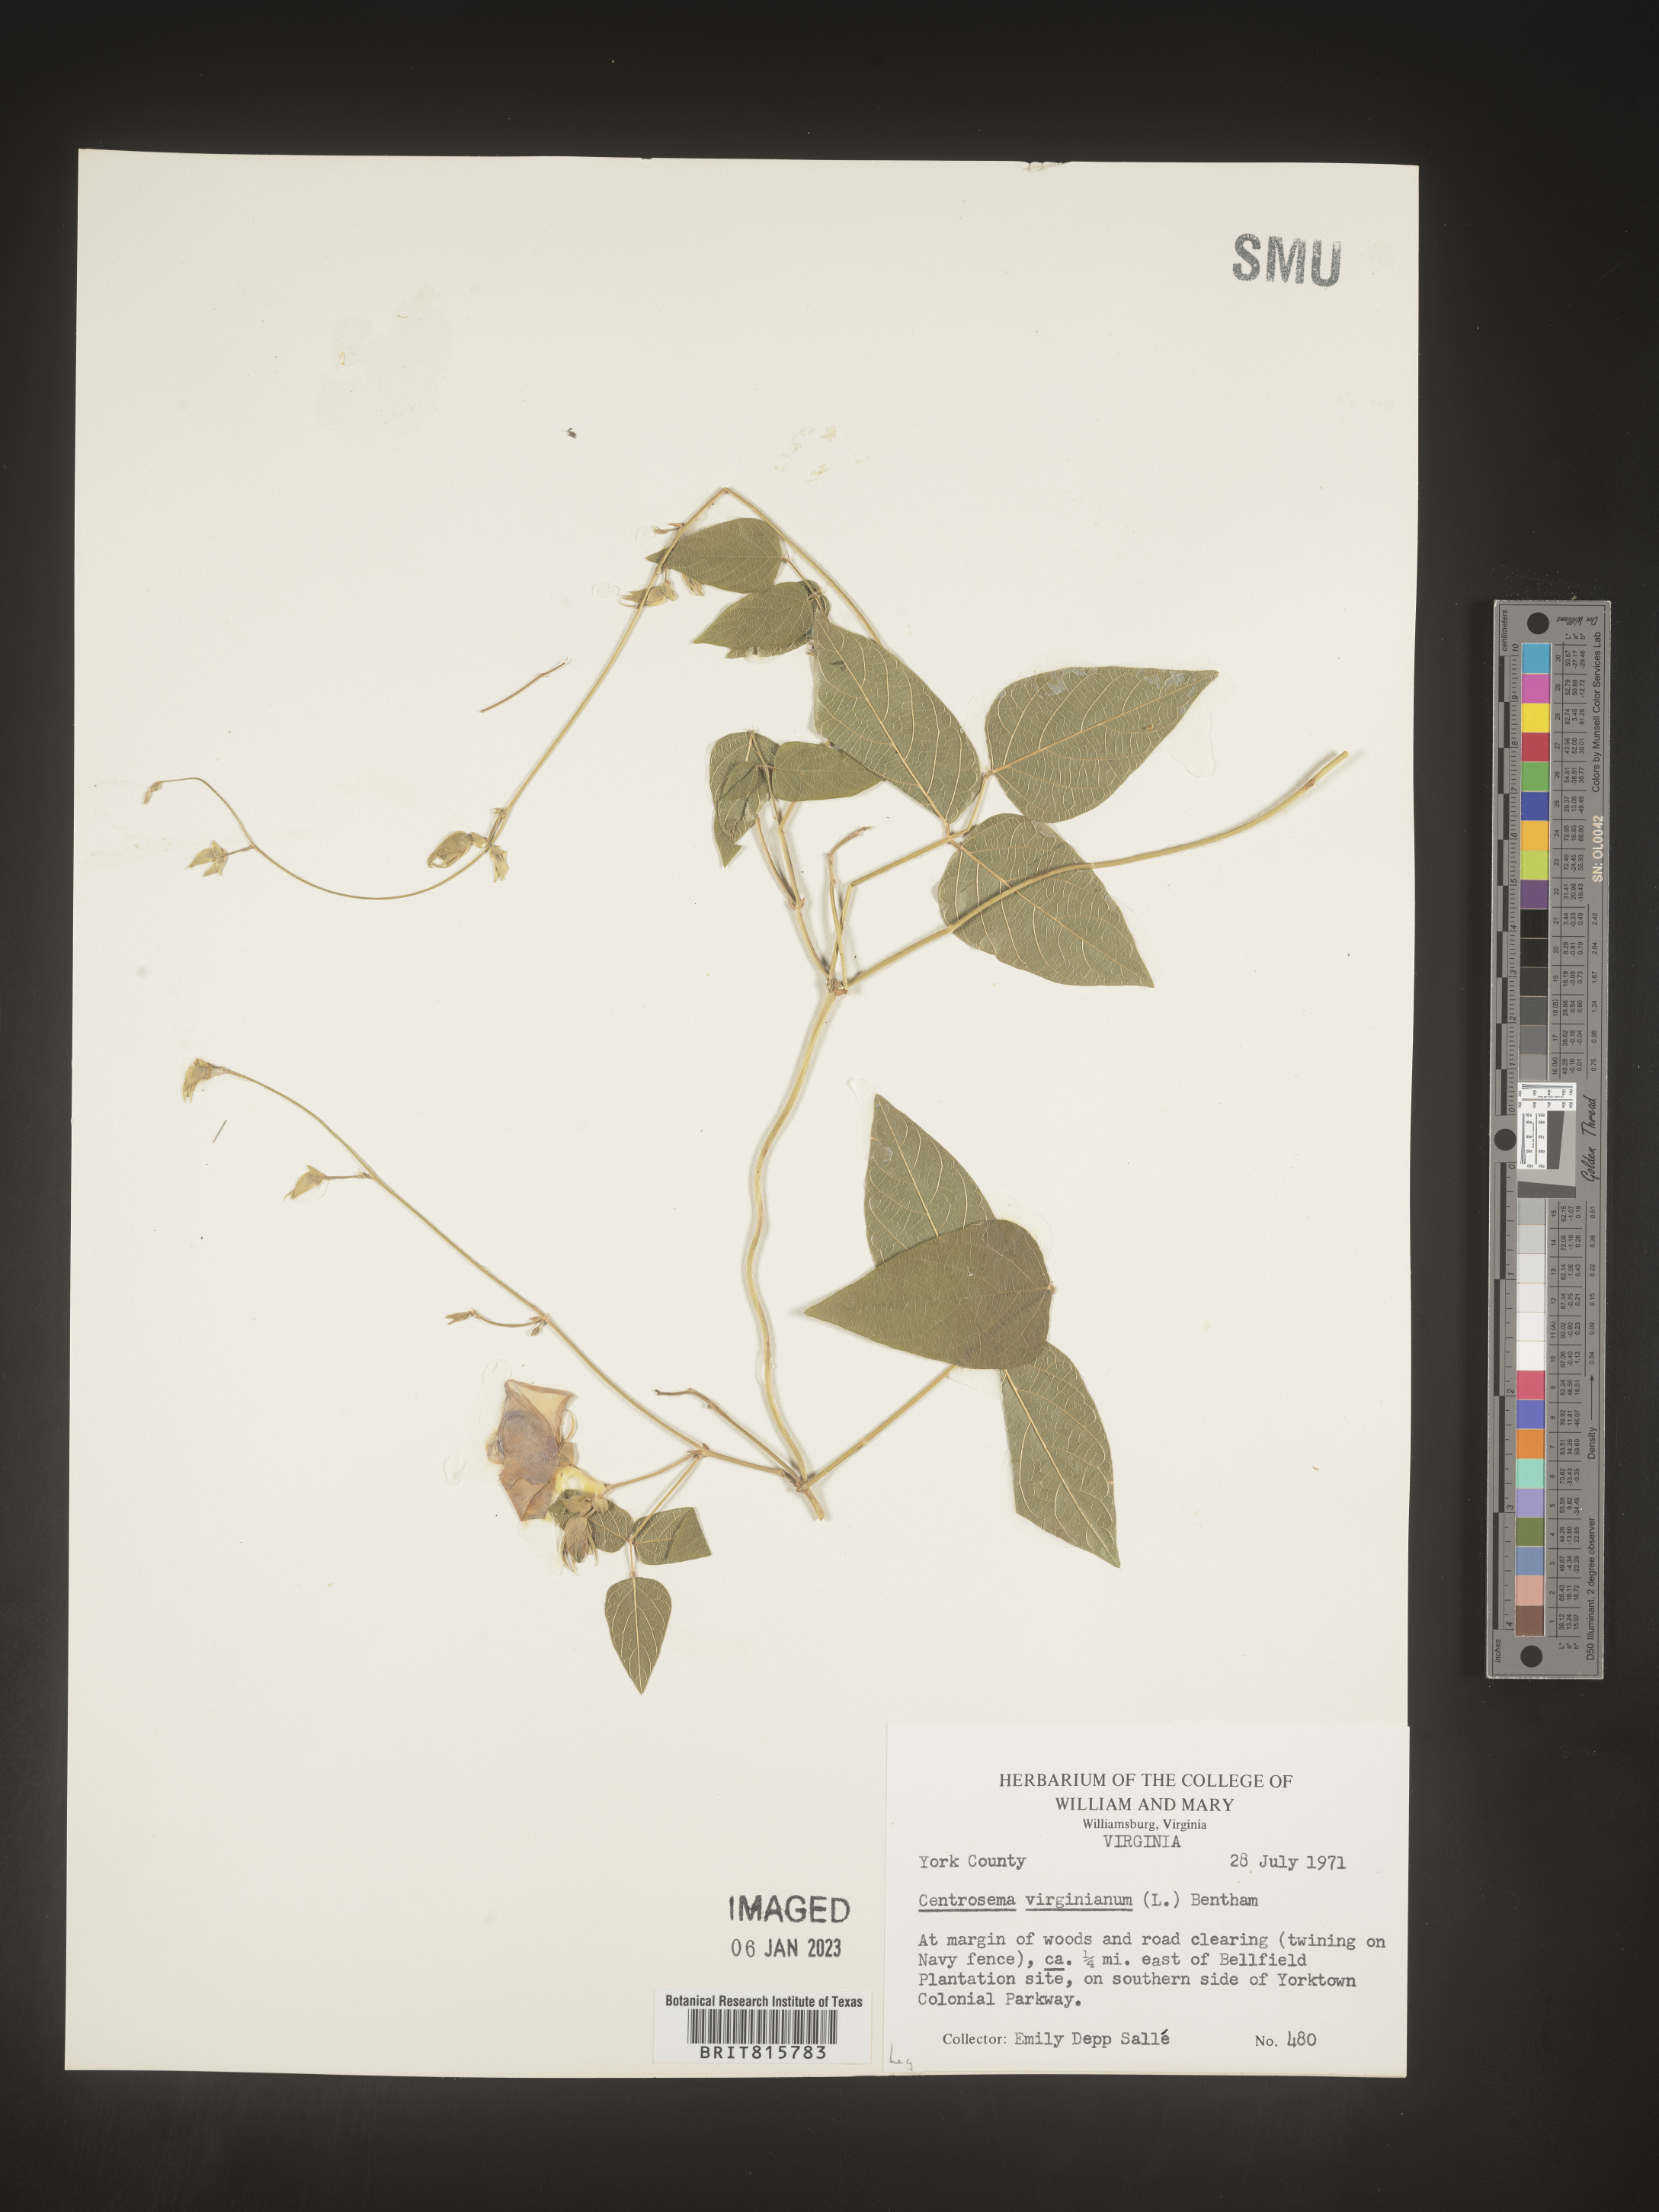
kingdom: Plantae
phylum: Tracheophyta
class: Magnoliopsida
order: Fabales
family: Fabaceae
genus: Centrosema
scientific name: Centrosema virginianum
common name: Butterfly-pea
